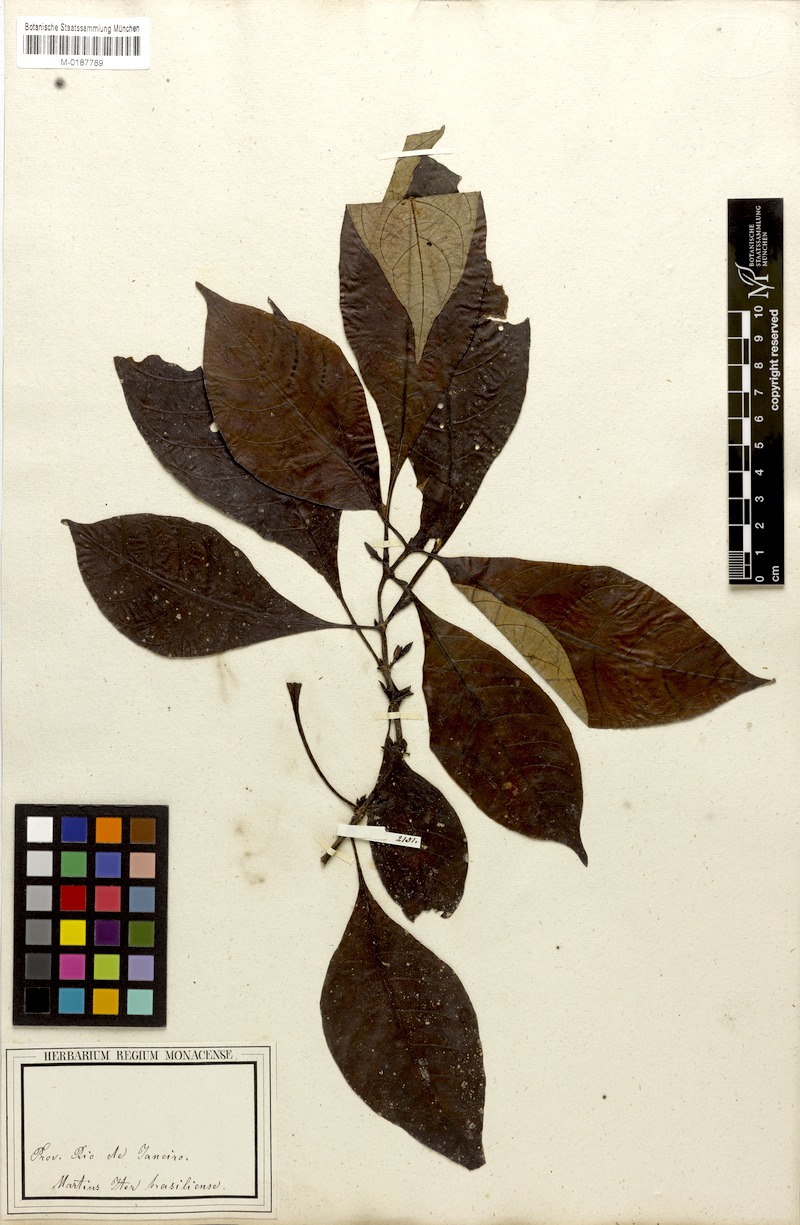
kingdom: Plantae
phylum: Tracheophyta
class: Magnoliopsida
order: Gentianales
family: Rubiaceae
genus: Hoffmannia
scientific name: Hoffmannia peckii
